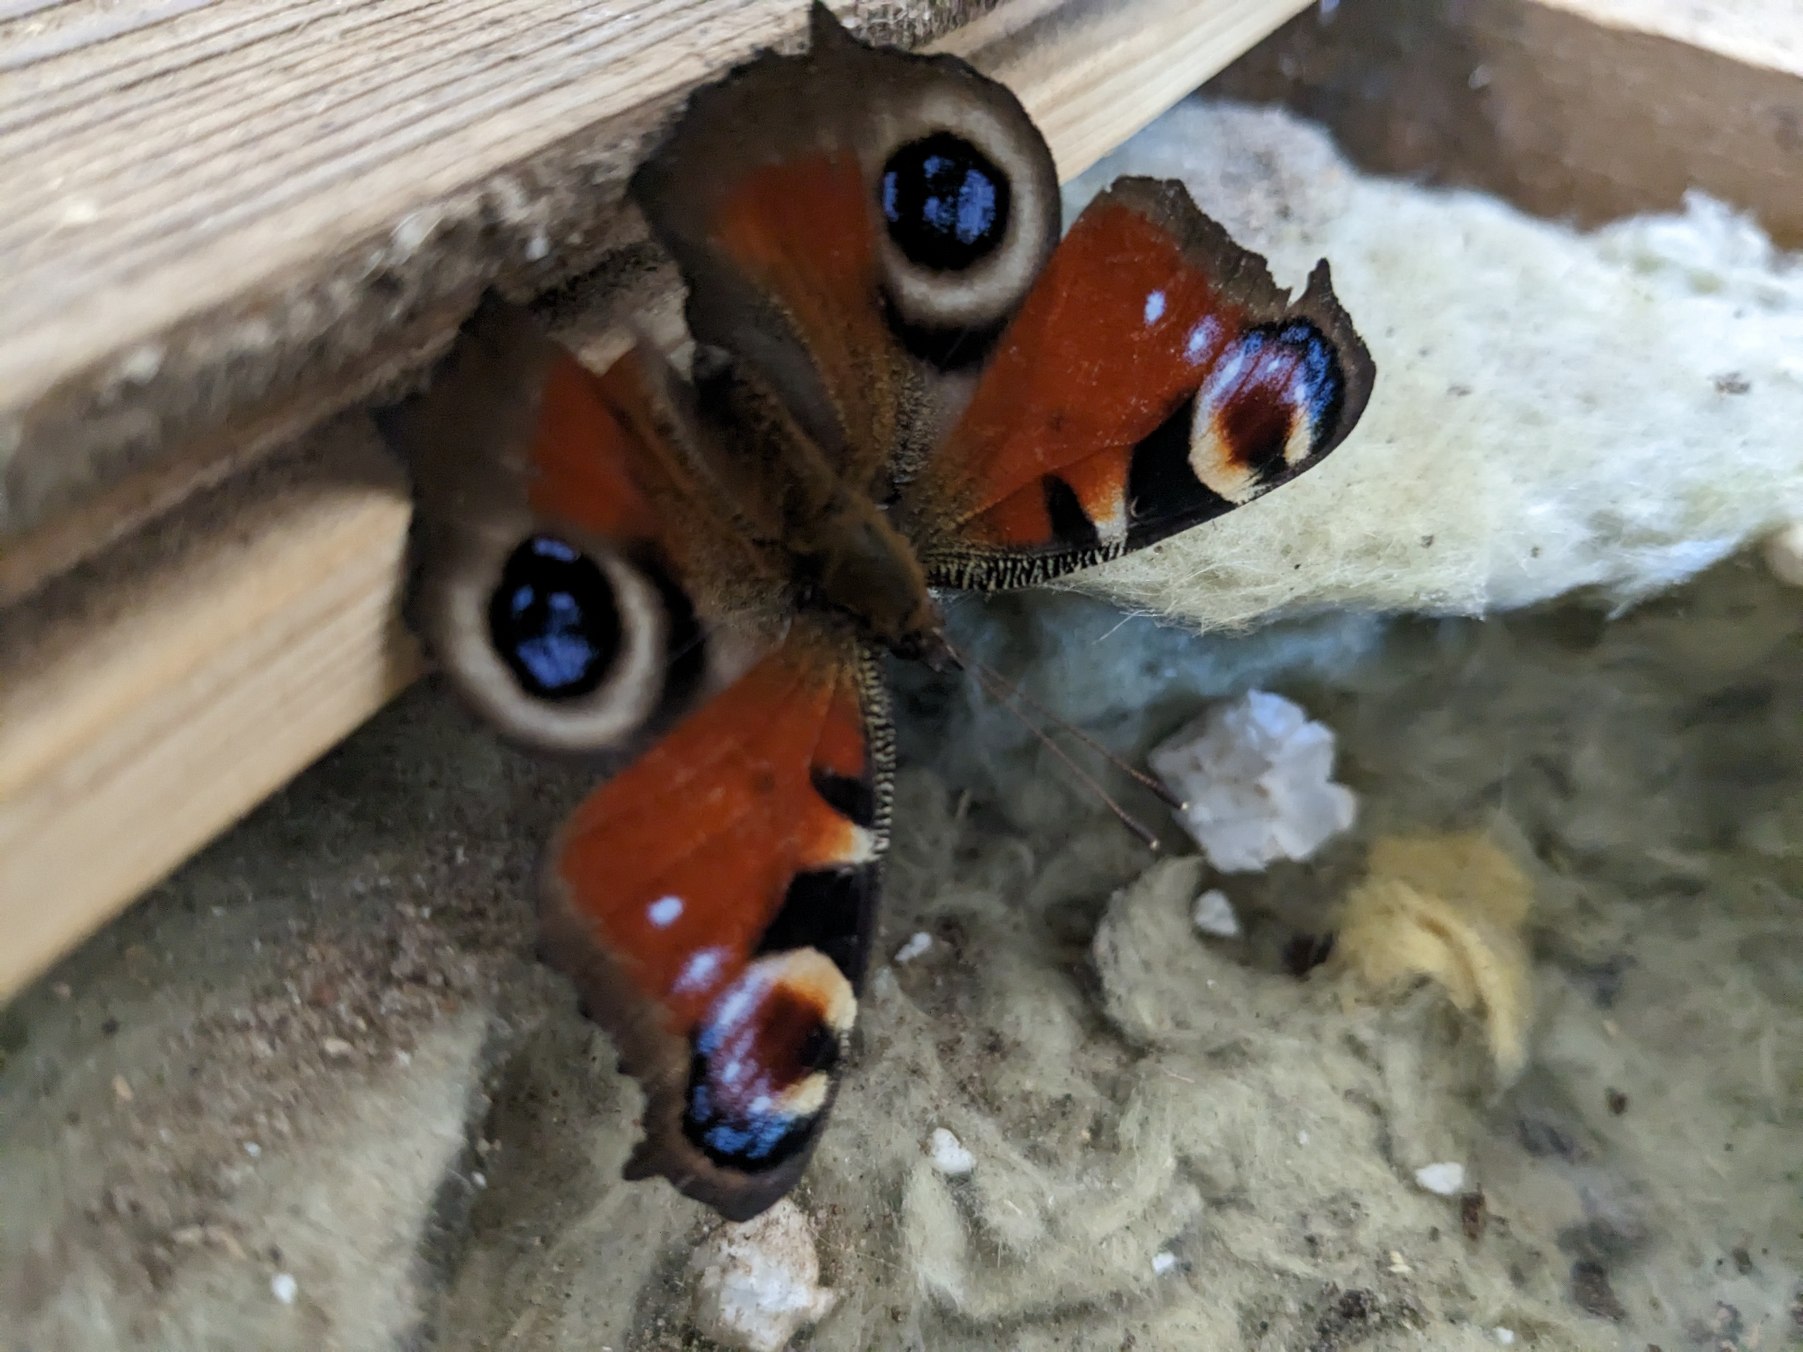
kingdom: Animalia
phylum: Arthropoda
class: Insecta
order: Lepidoptera
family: Nymphalidae
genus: Aglais
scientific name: Aglais io
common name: Dagpåfugleøje
